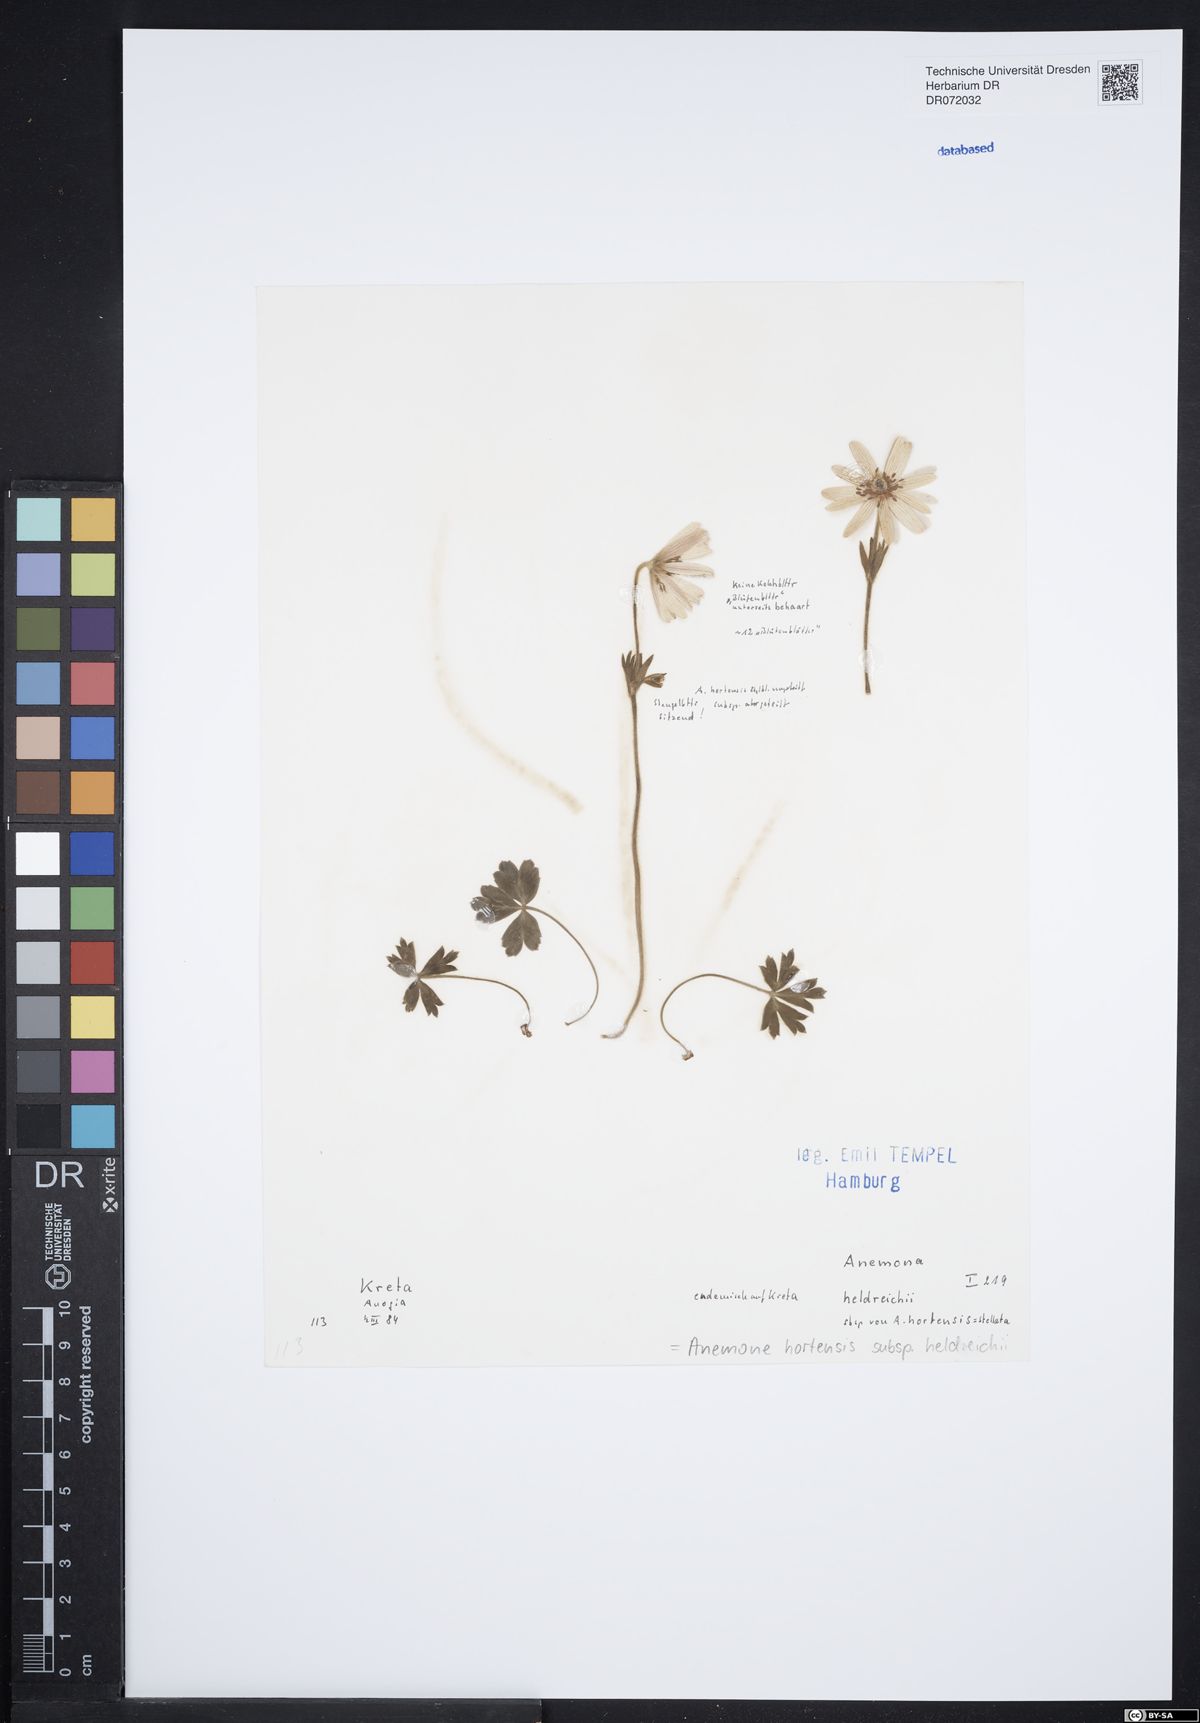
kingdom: Plantae
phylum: Tracheophyta
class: Magnoliopsida
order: Ranunculales
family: Ranunculaceae
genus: Anemone
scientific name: Anemone hortensis
